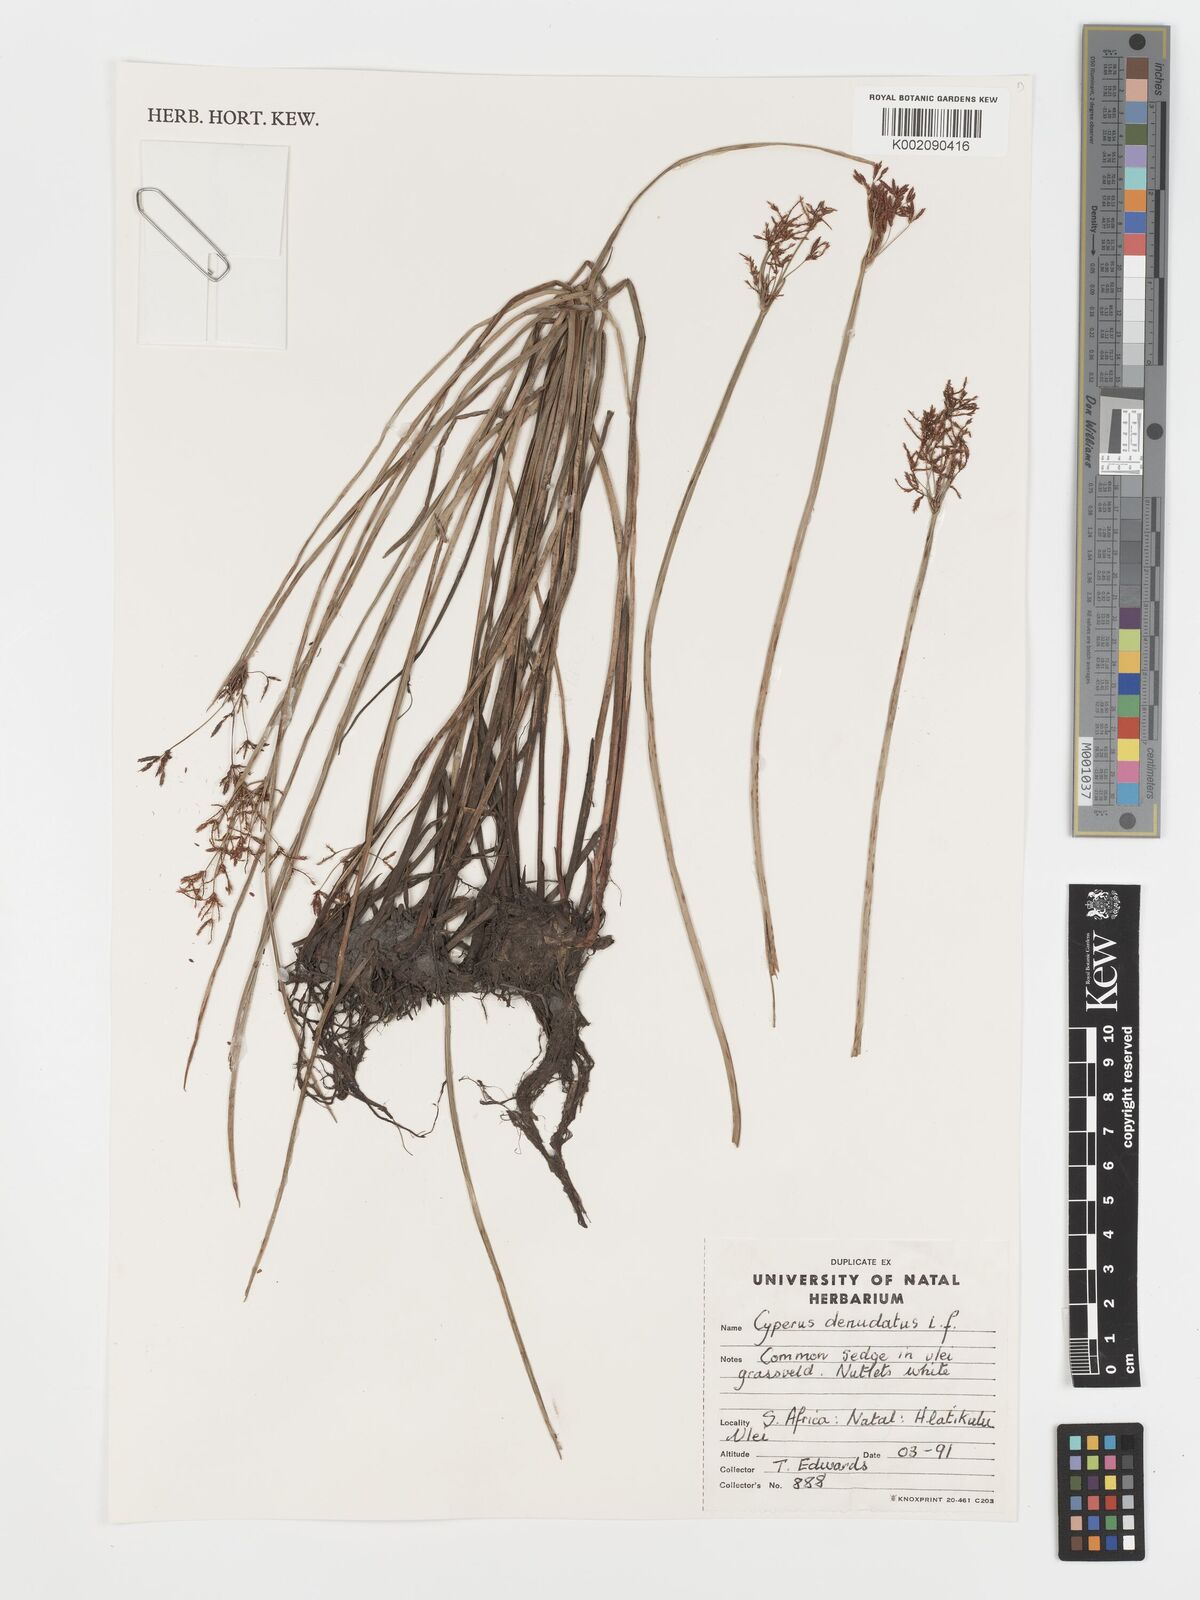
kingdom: Plantae
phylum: Tracheophyta
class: Liliopsida
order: Poales
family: Cyperaceae
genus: Cyperus
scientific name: Cyperus denudatus
